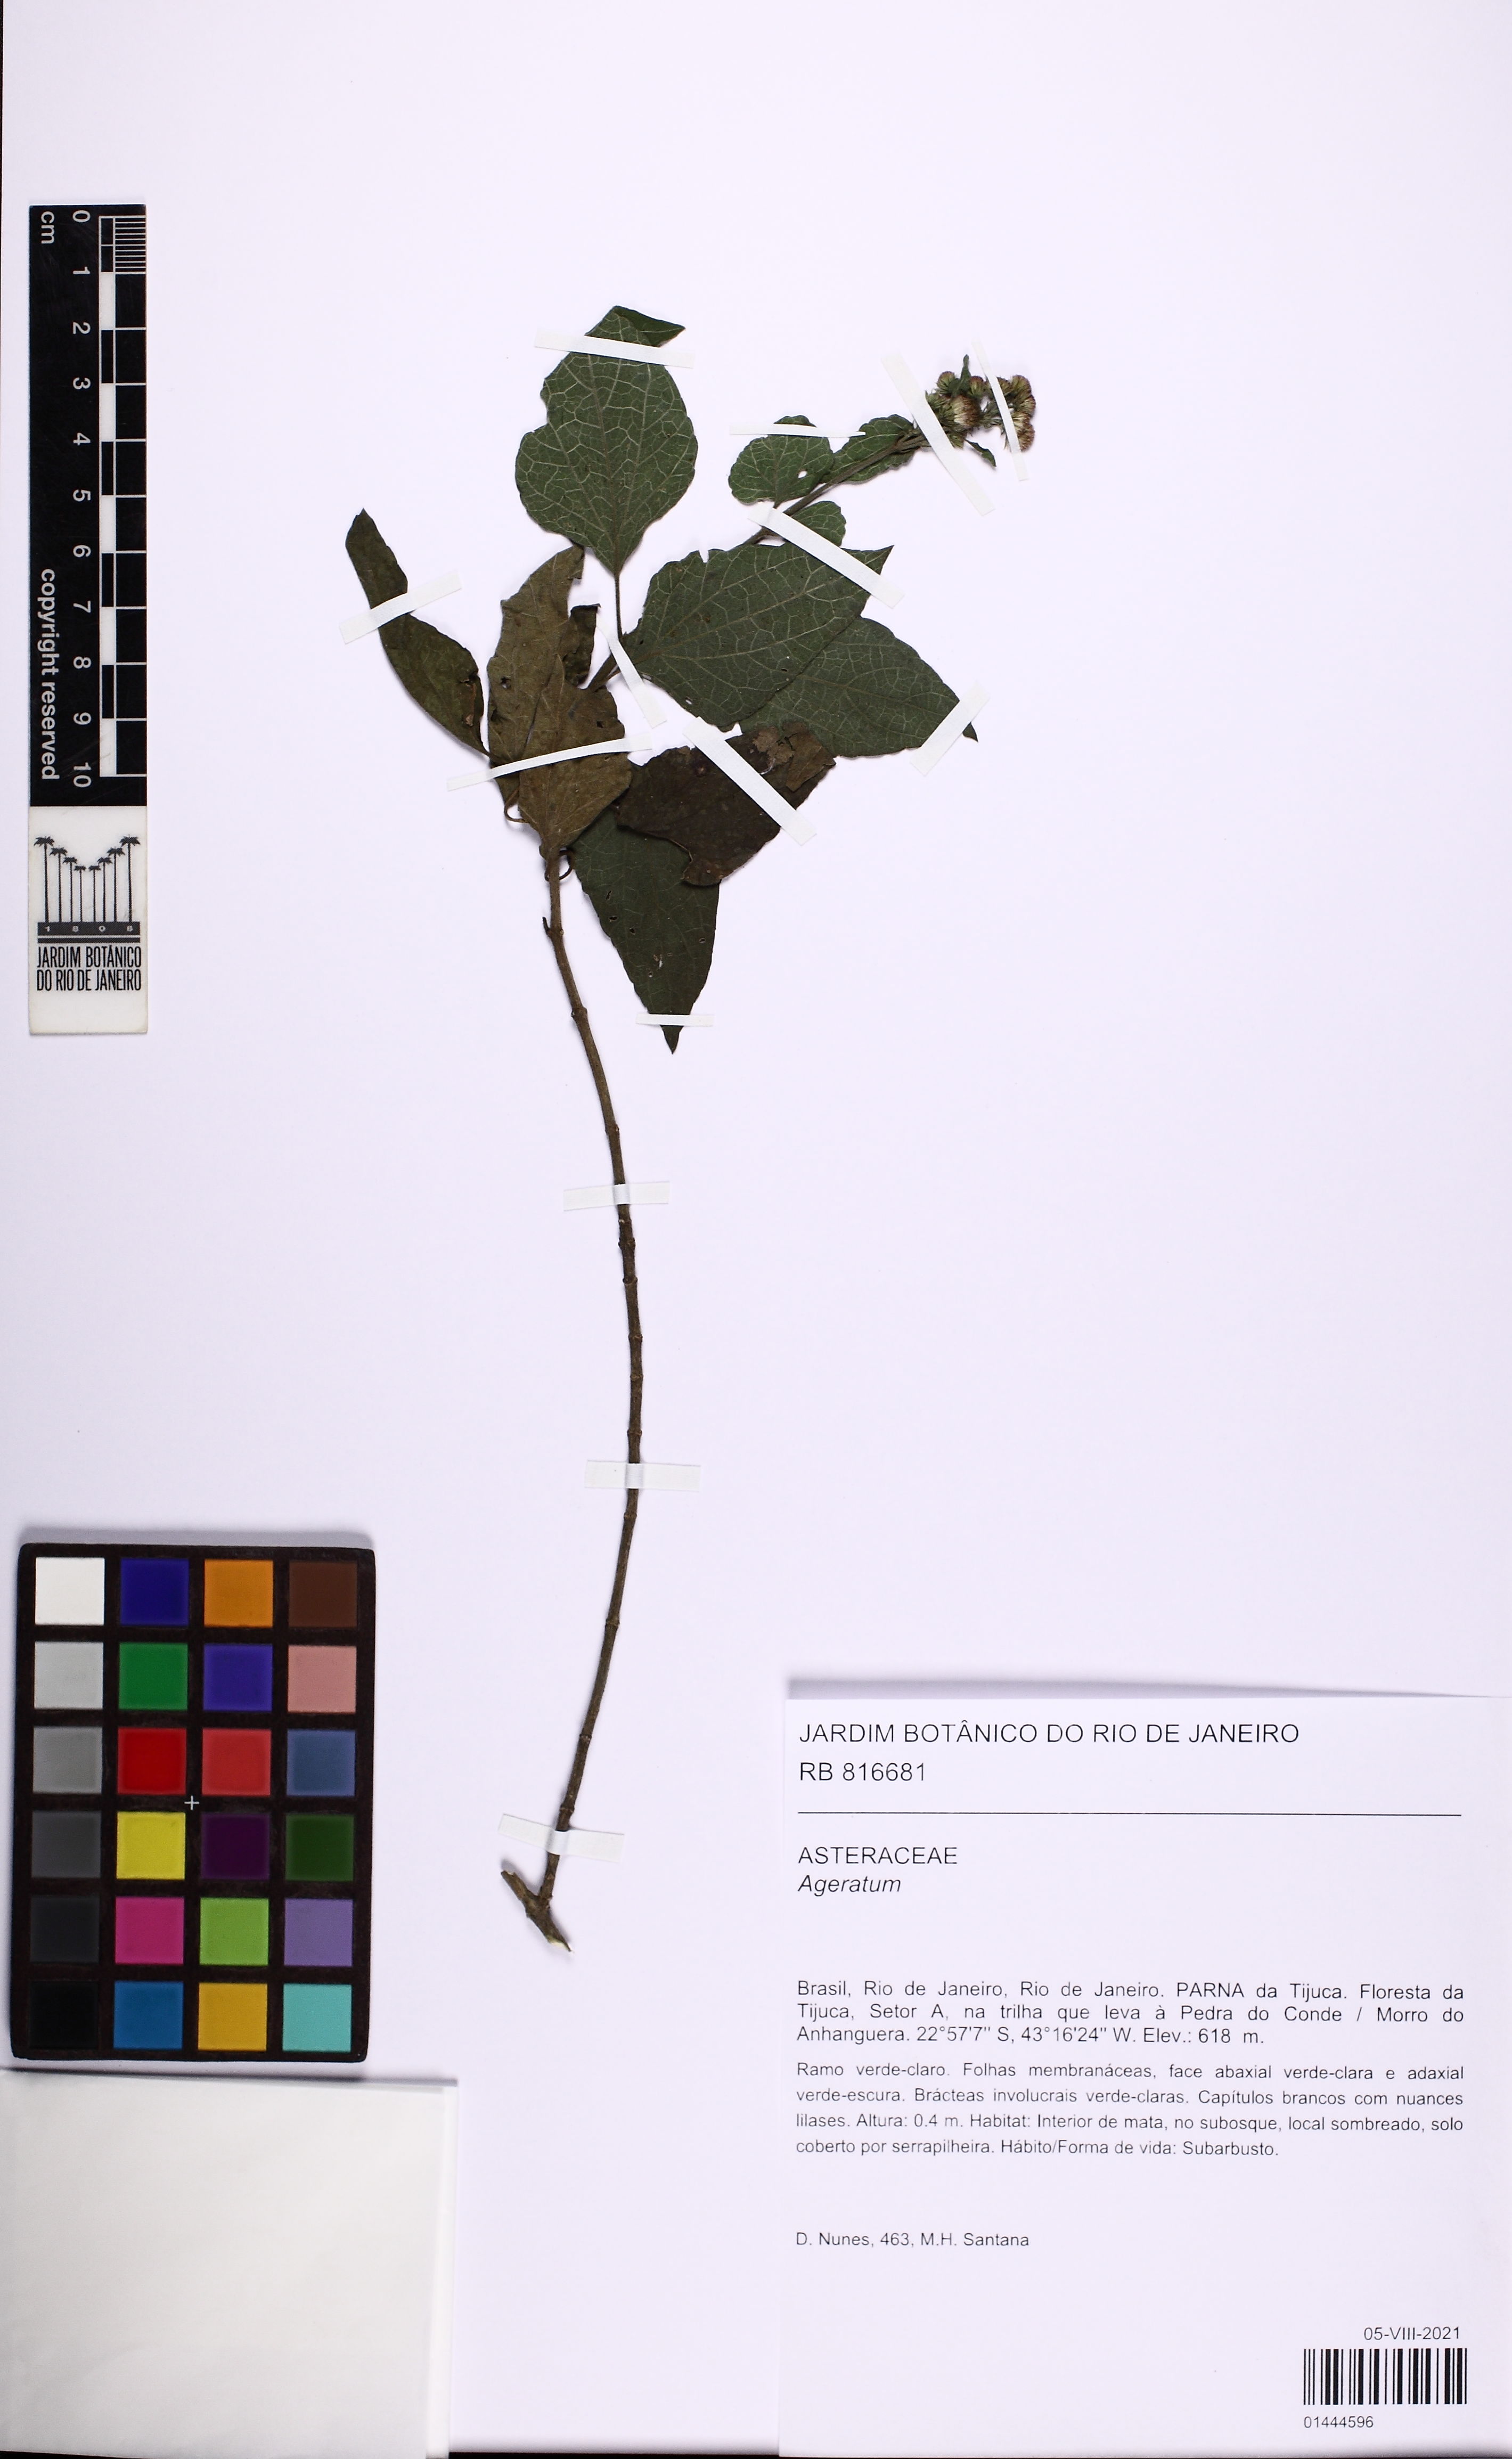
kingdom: Plantae
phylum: Tracheophyta
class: Magnoliopsida
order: Asterales
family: Asteraceae
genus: Ageratum
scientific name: Ageratum
